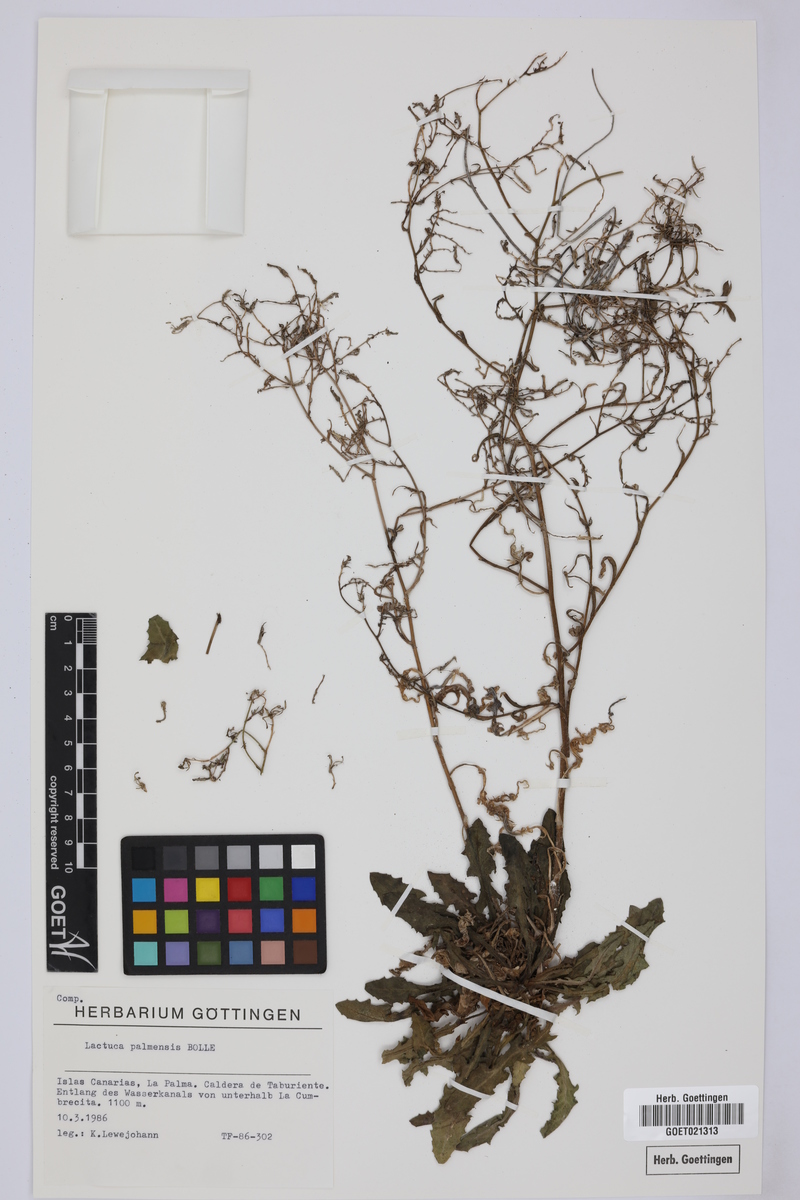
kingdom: Plantae
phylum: Tracheophyta
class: Magnoliopsida
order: Asterales
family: Asteraceae
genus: Lactuca
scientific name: Lactuca palmensis
